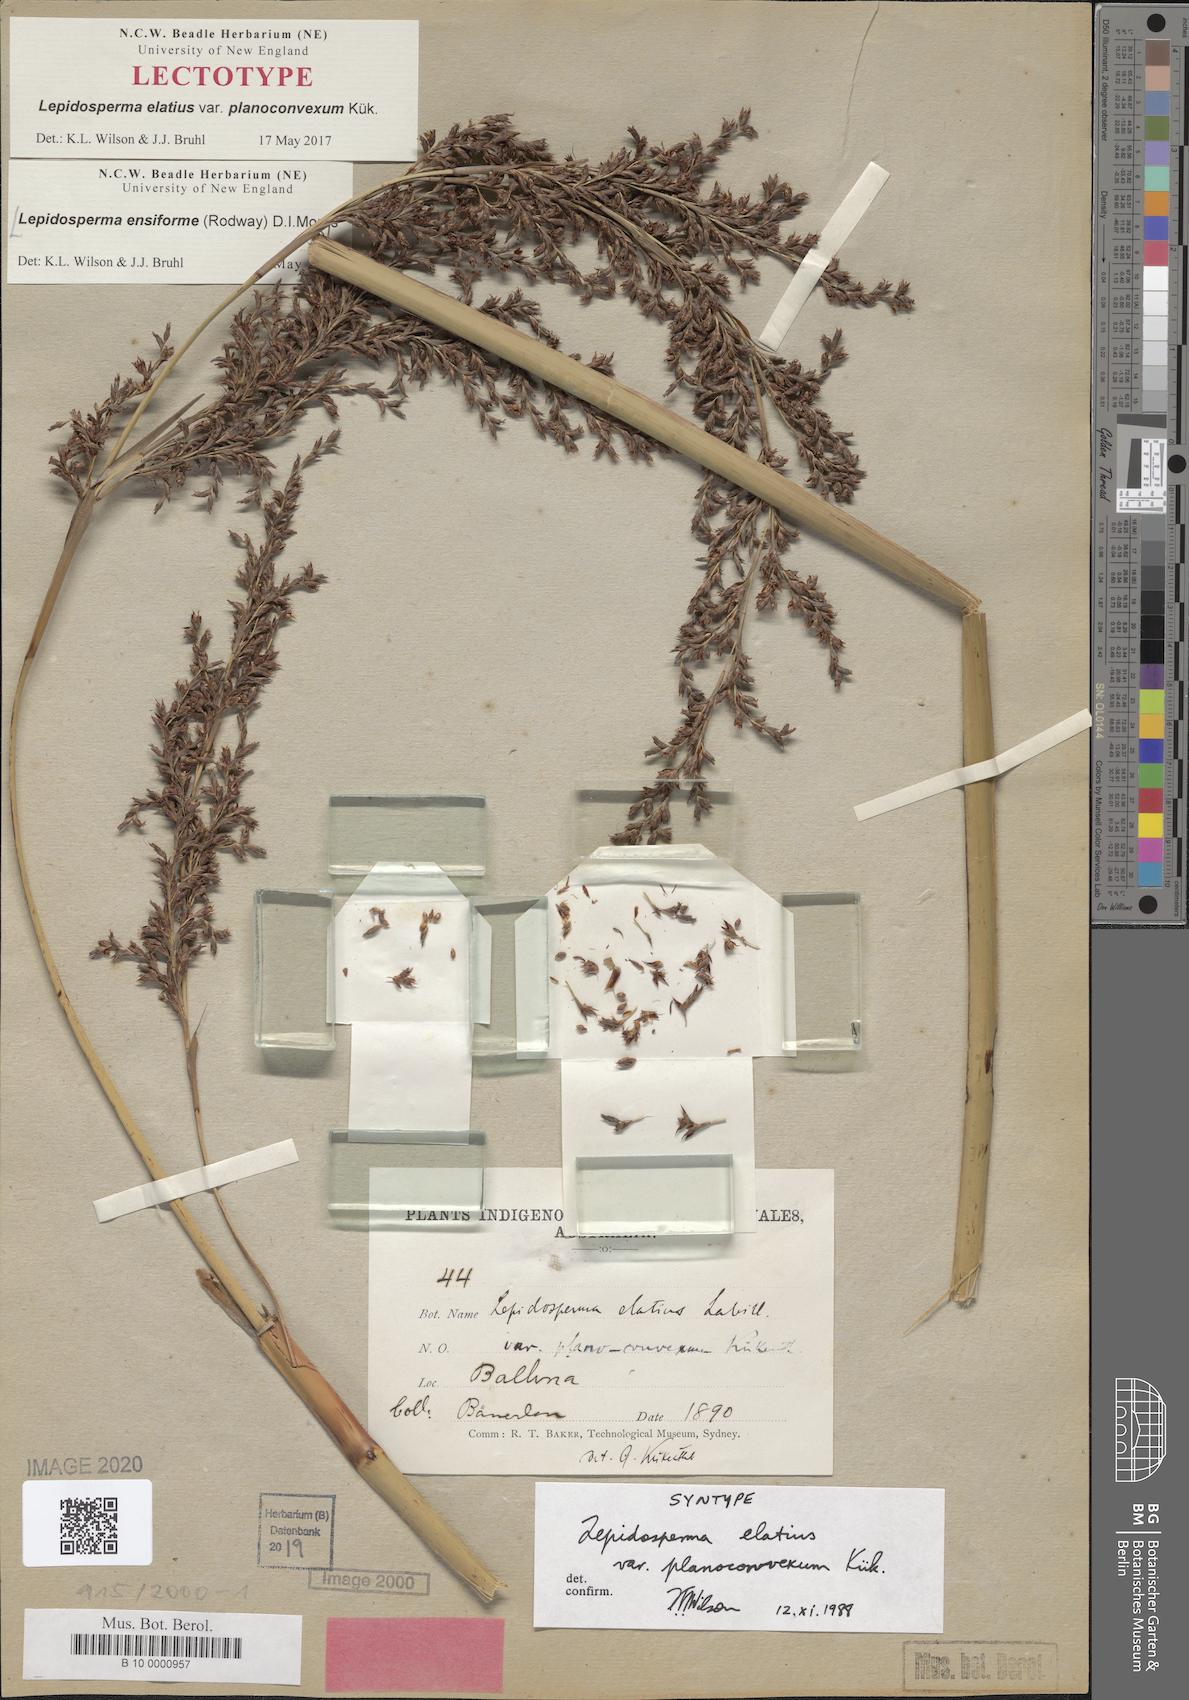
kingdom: Plantae
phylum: Tracheophyta
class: Liliopsida
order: Poales
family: Cyperaceae
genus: Lepidosperma
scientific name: Lepidosperma ensiforme
